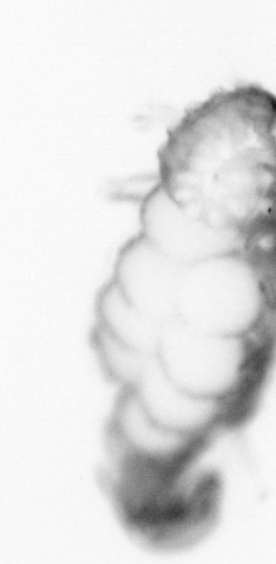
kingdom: Animalia
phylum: Annelida
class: Polychaeta
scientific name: Polychaeta
